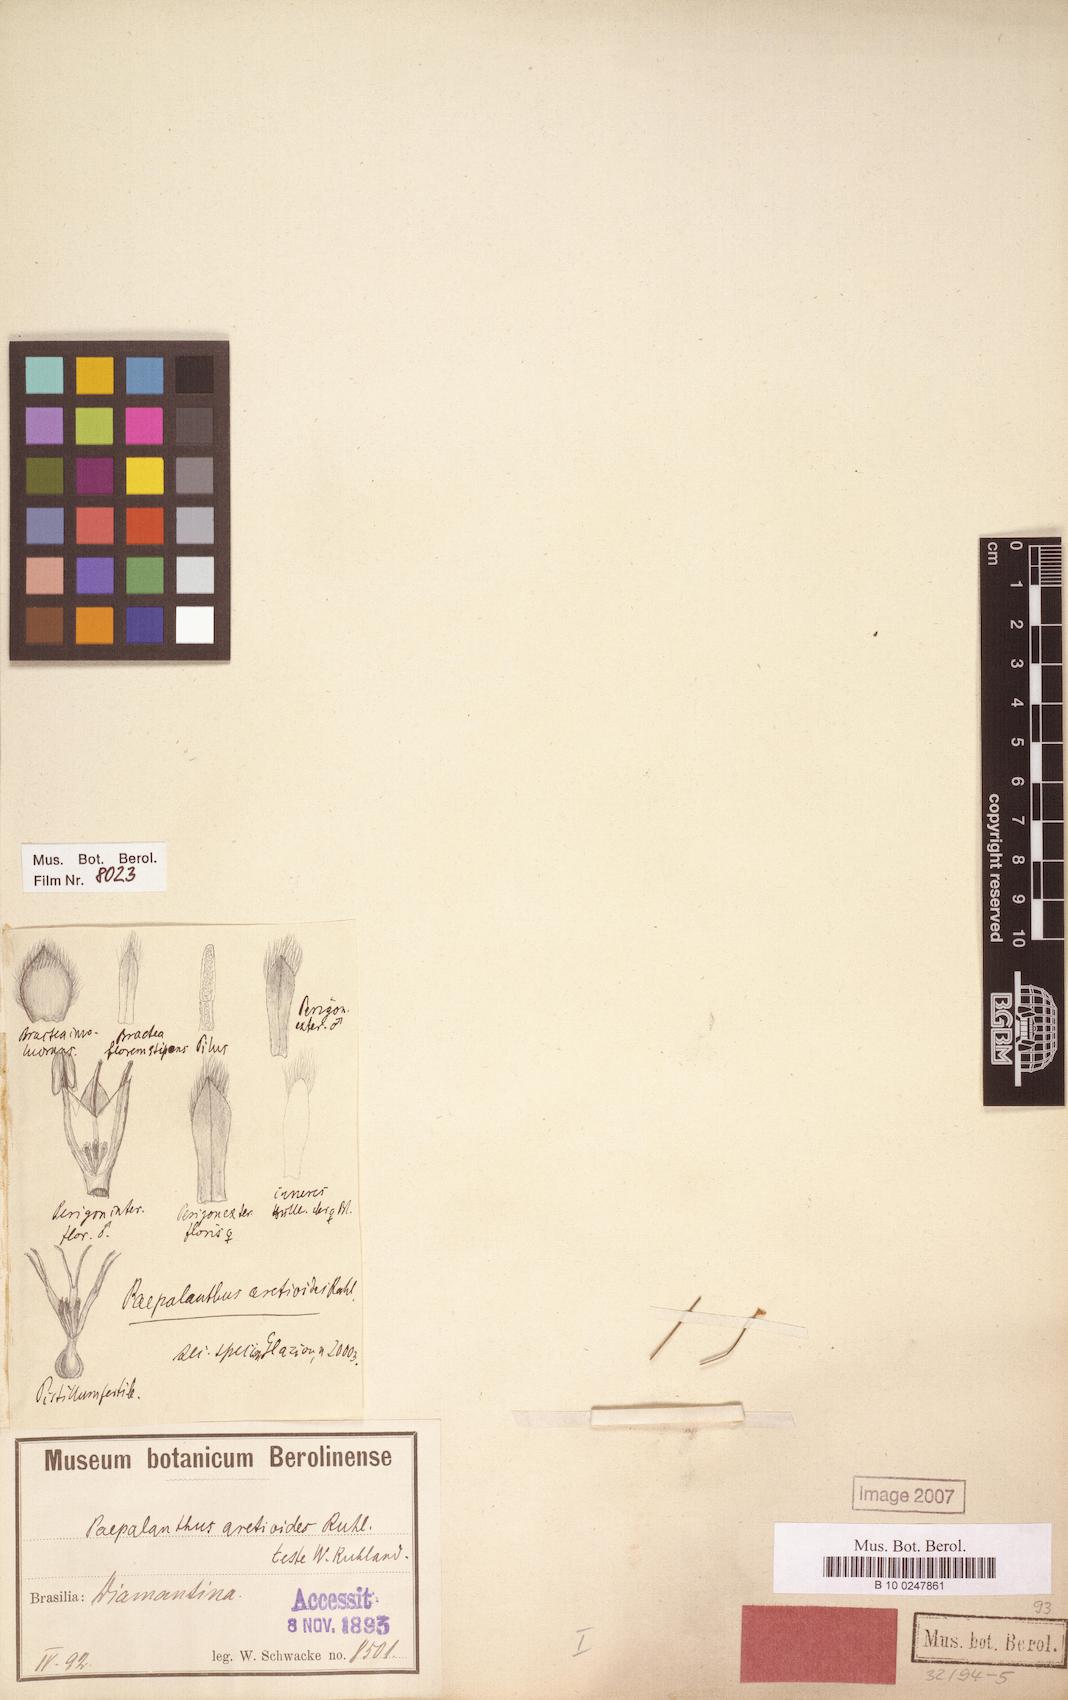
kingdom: Plantae
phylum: Tracheophyta
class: Liliopsida
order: Poales
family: Eriocaulaceae
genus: Paepalanthus
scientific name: Paepalanthus aretioides
